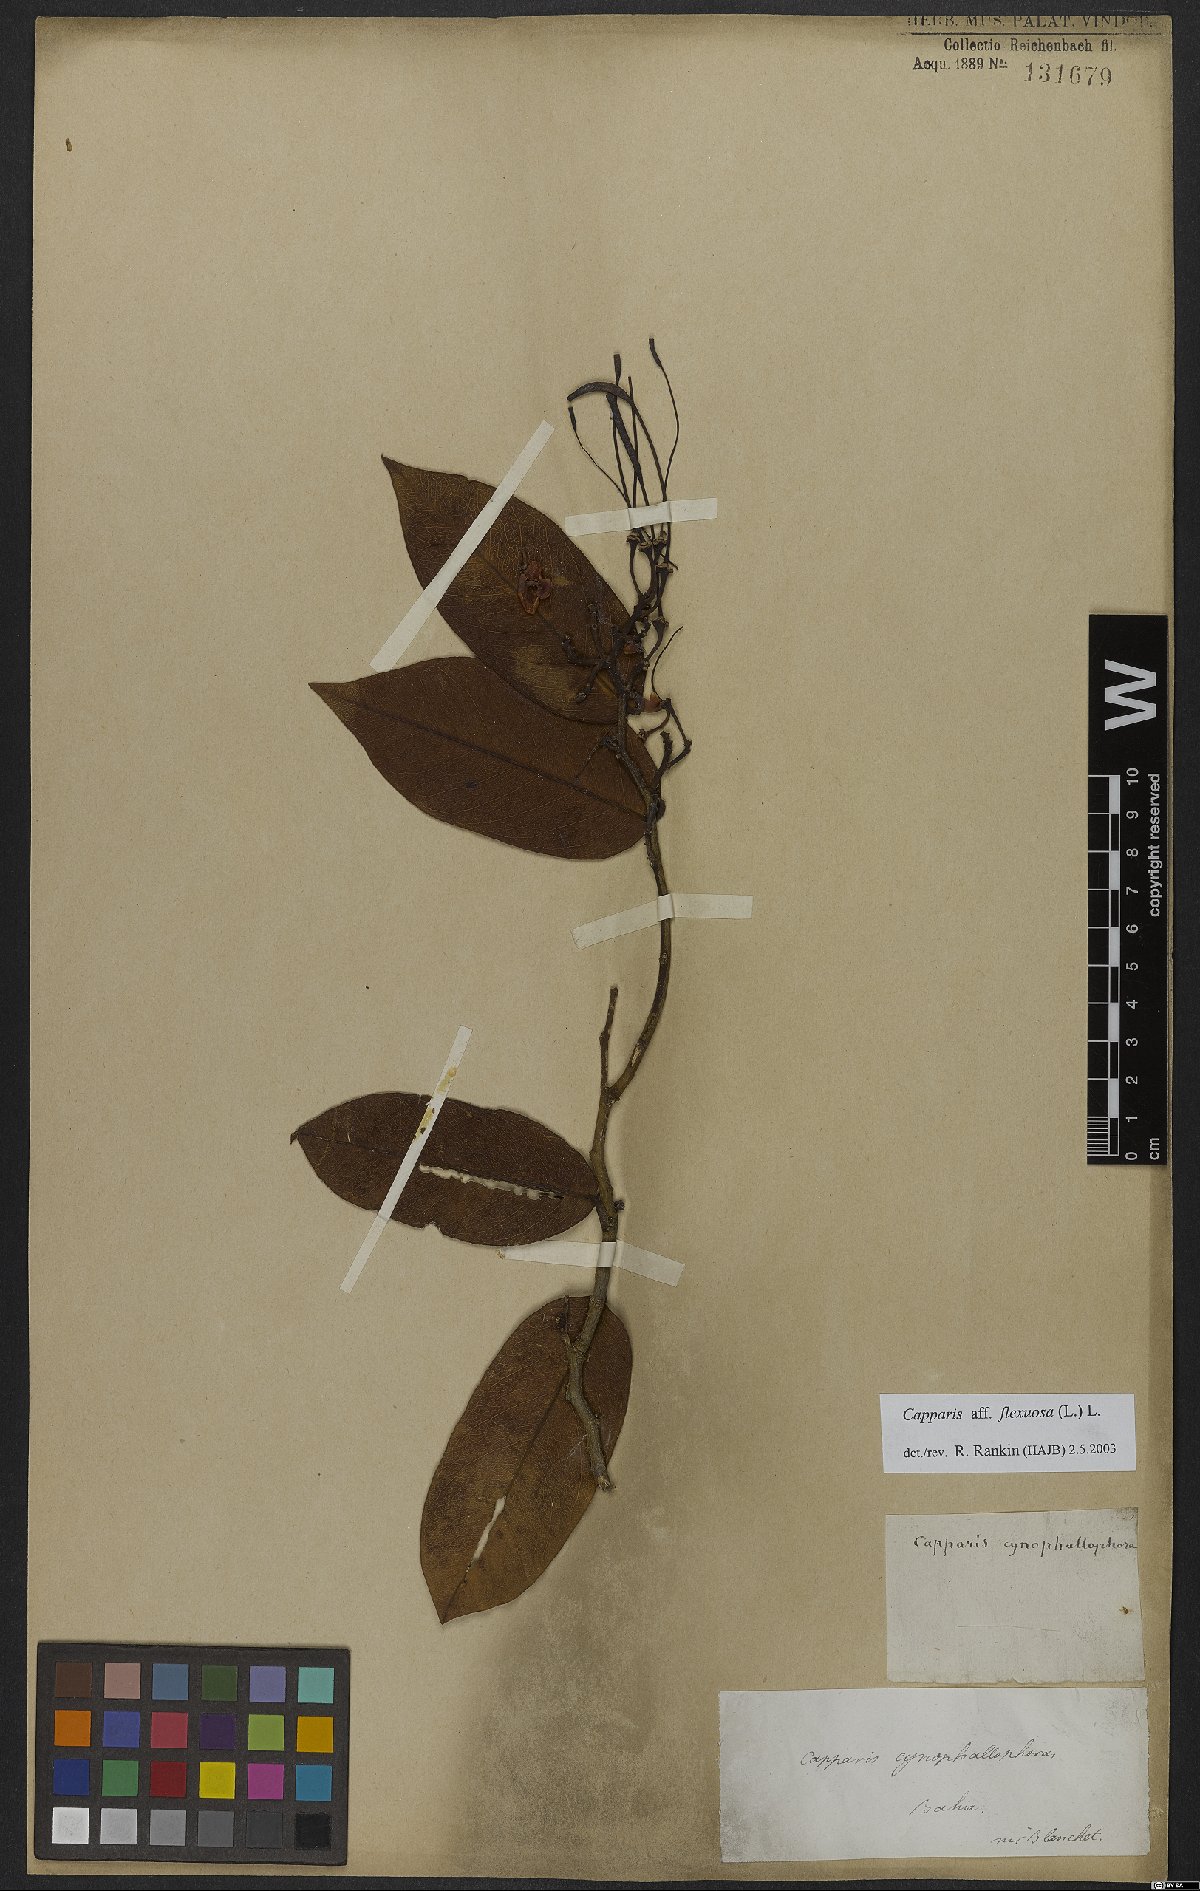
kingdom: Plantae
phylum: Tracheophyta
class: Magnoliopsida
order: Brassicales
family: Capparaceae
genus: Cynophalla
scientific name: Cynophalla flexuosa
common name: Capertree
